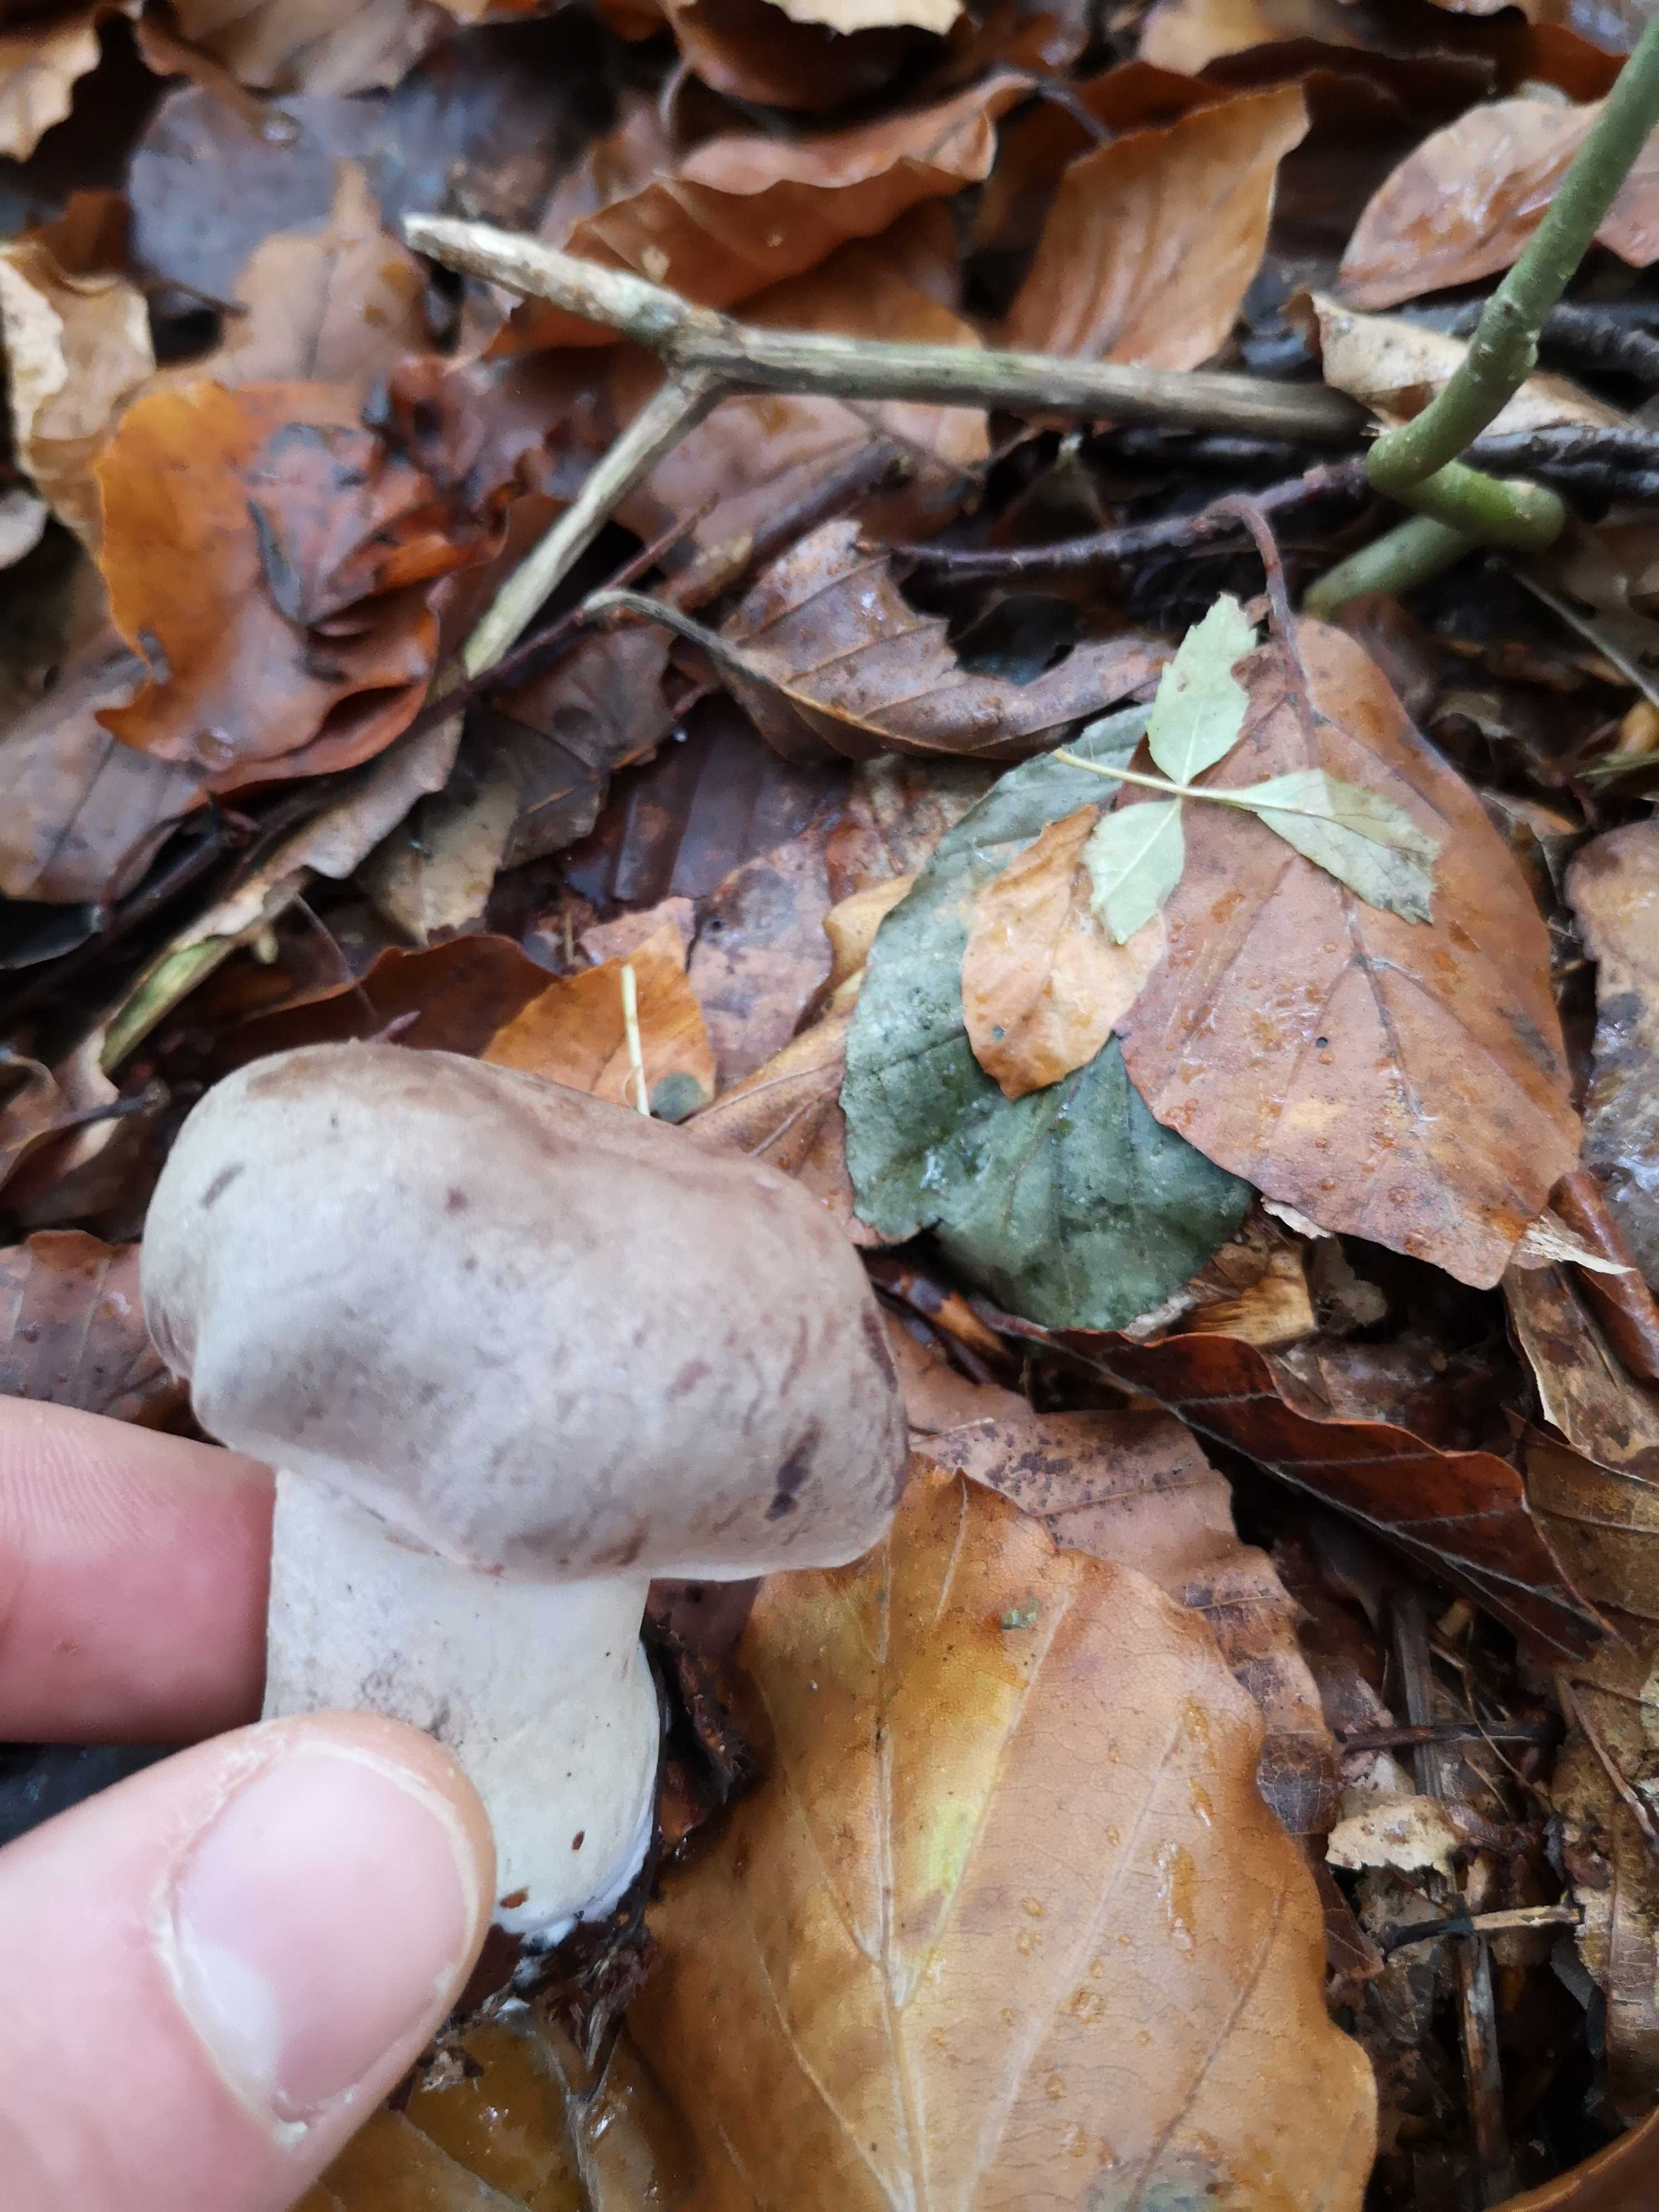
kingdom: Fungi
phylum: Basidiomycota
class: Agaricomycetes
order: Agaricales
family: Cortinariaceae
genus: Cortinarius
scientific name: Cortinarius
